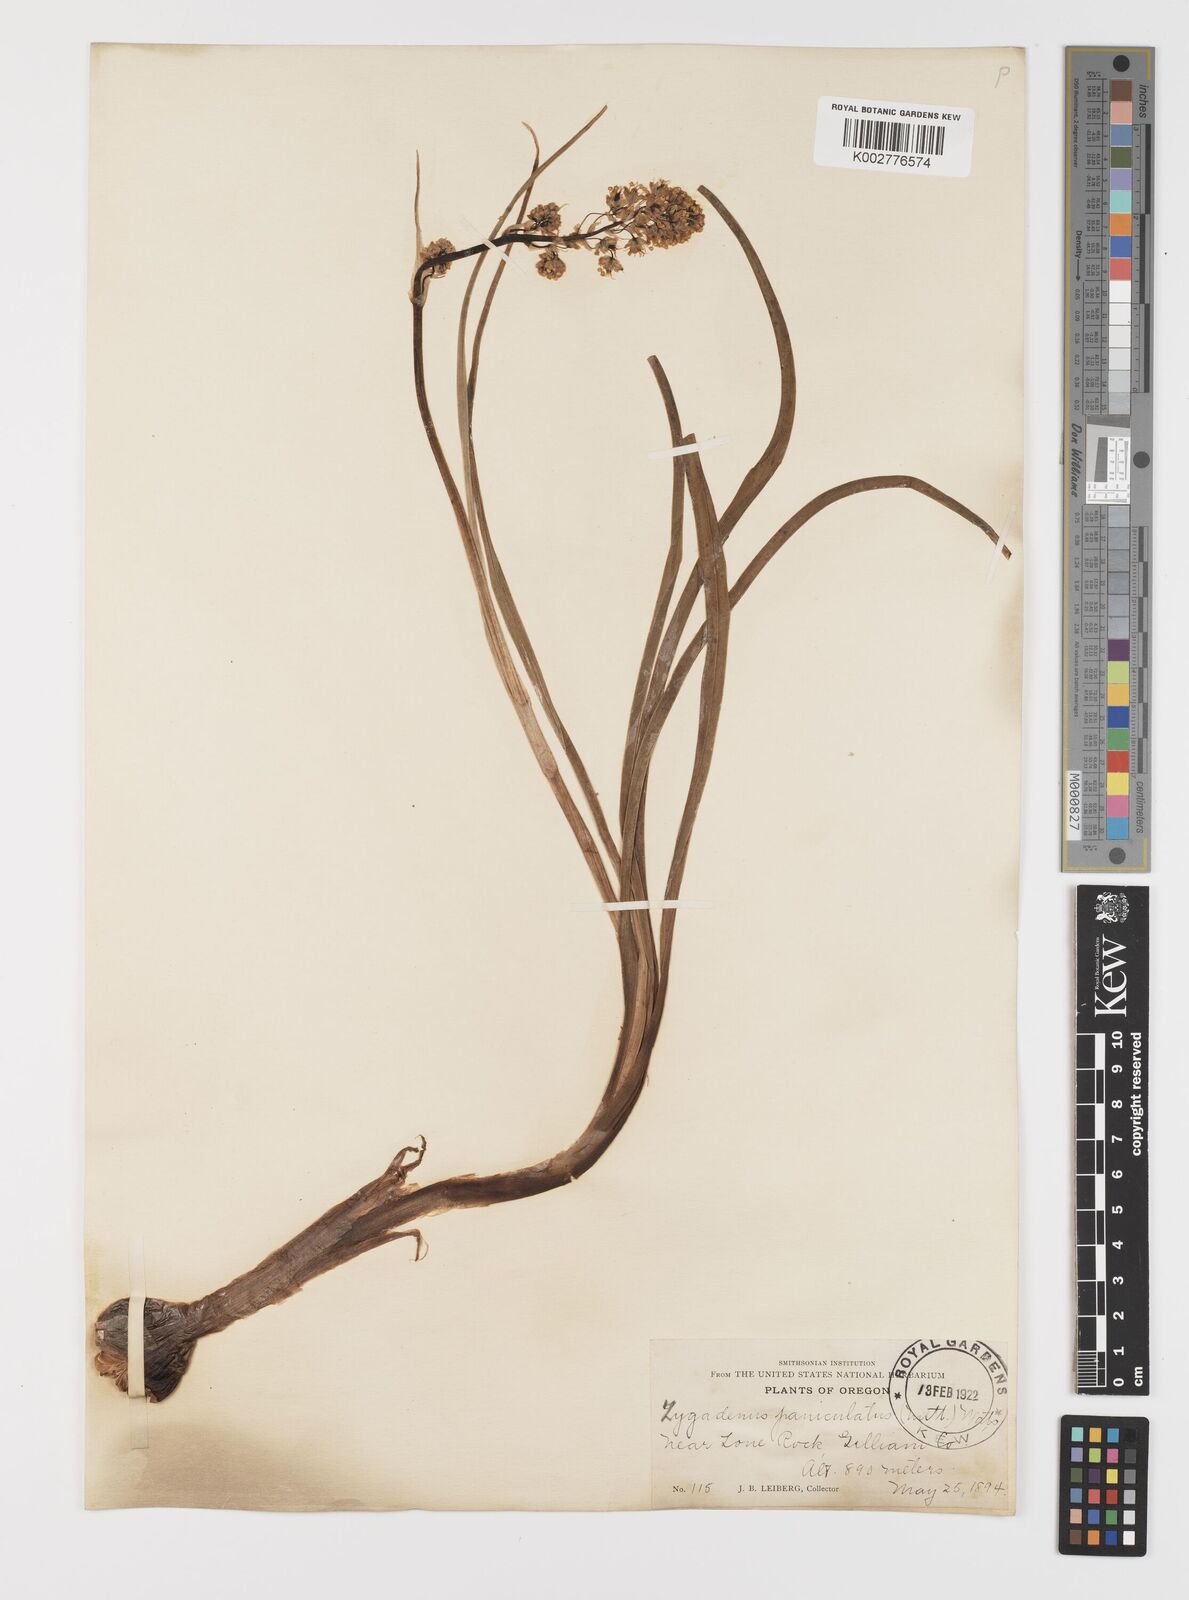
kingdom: Plantae
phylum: Tracheophyta
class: Liliopsida
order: Liliales
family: Melanthiaceae
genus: Toxicoscordion
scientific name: Toxicoscordion paniculatum
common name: Foothill death camas
